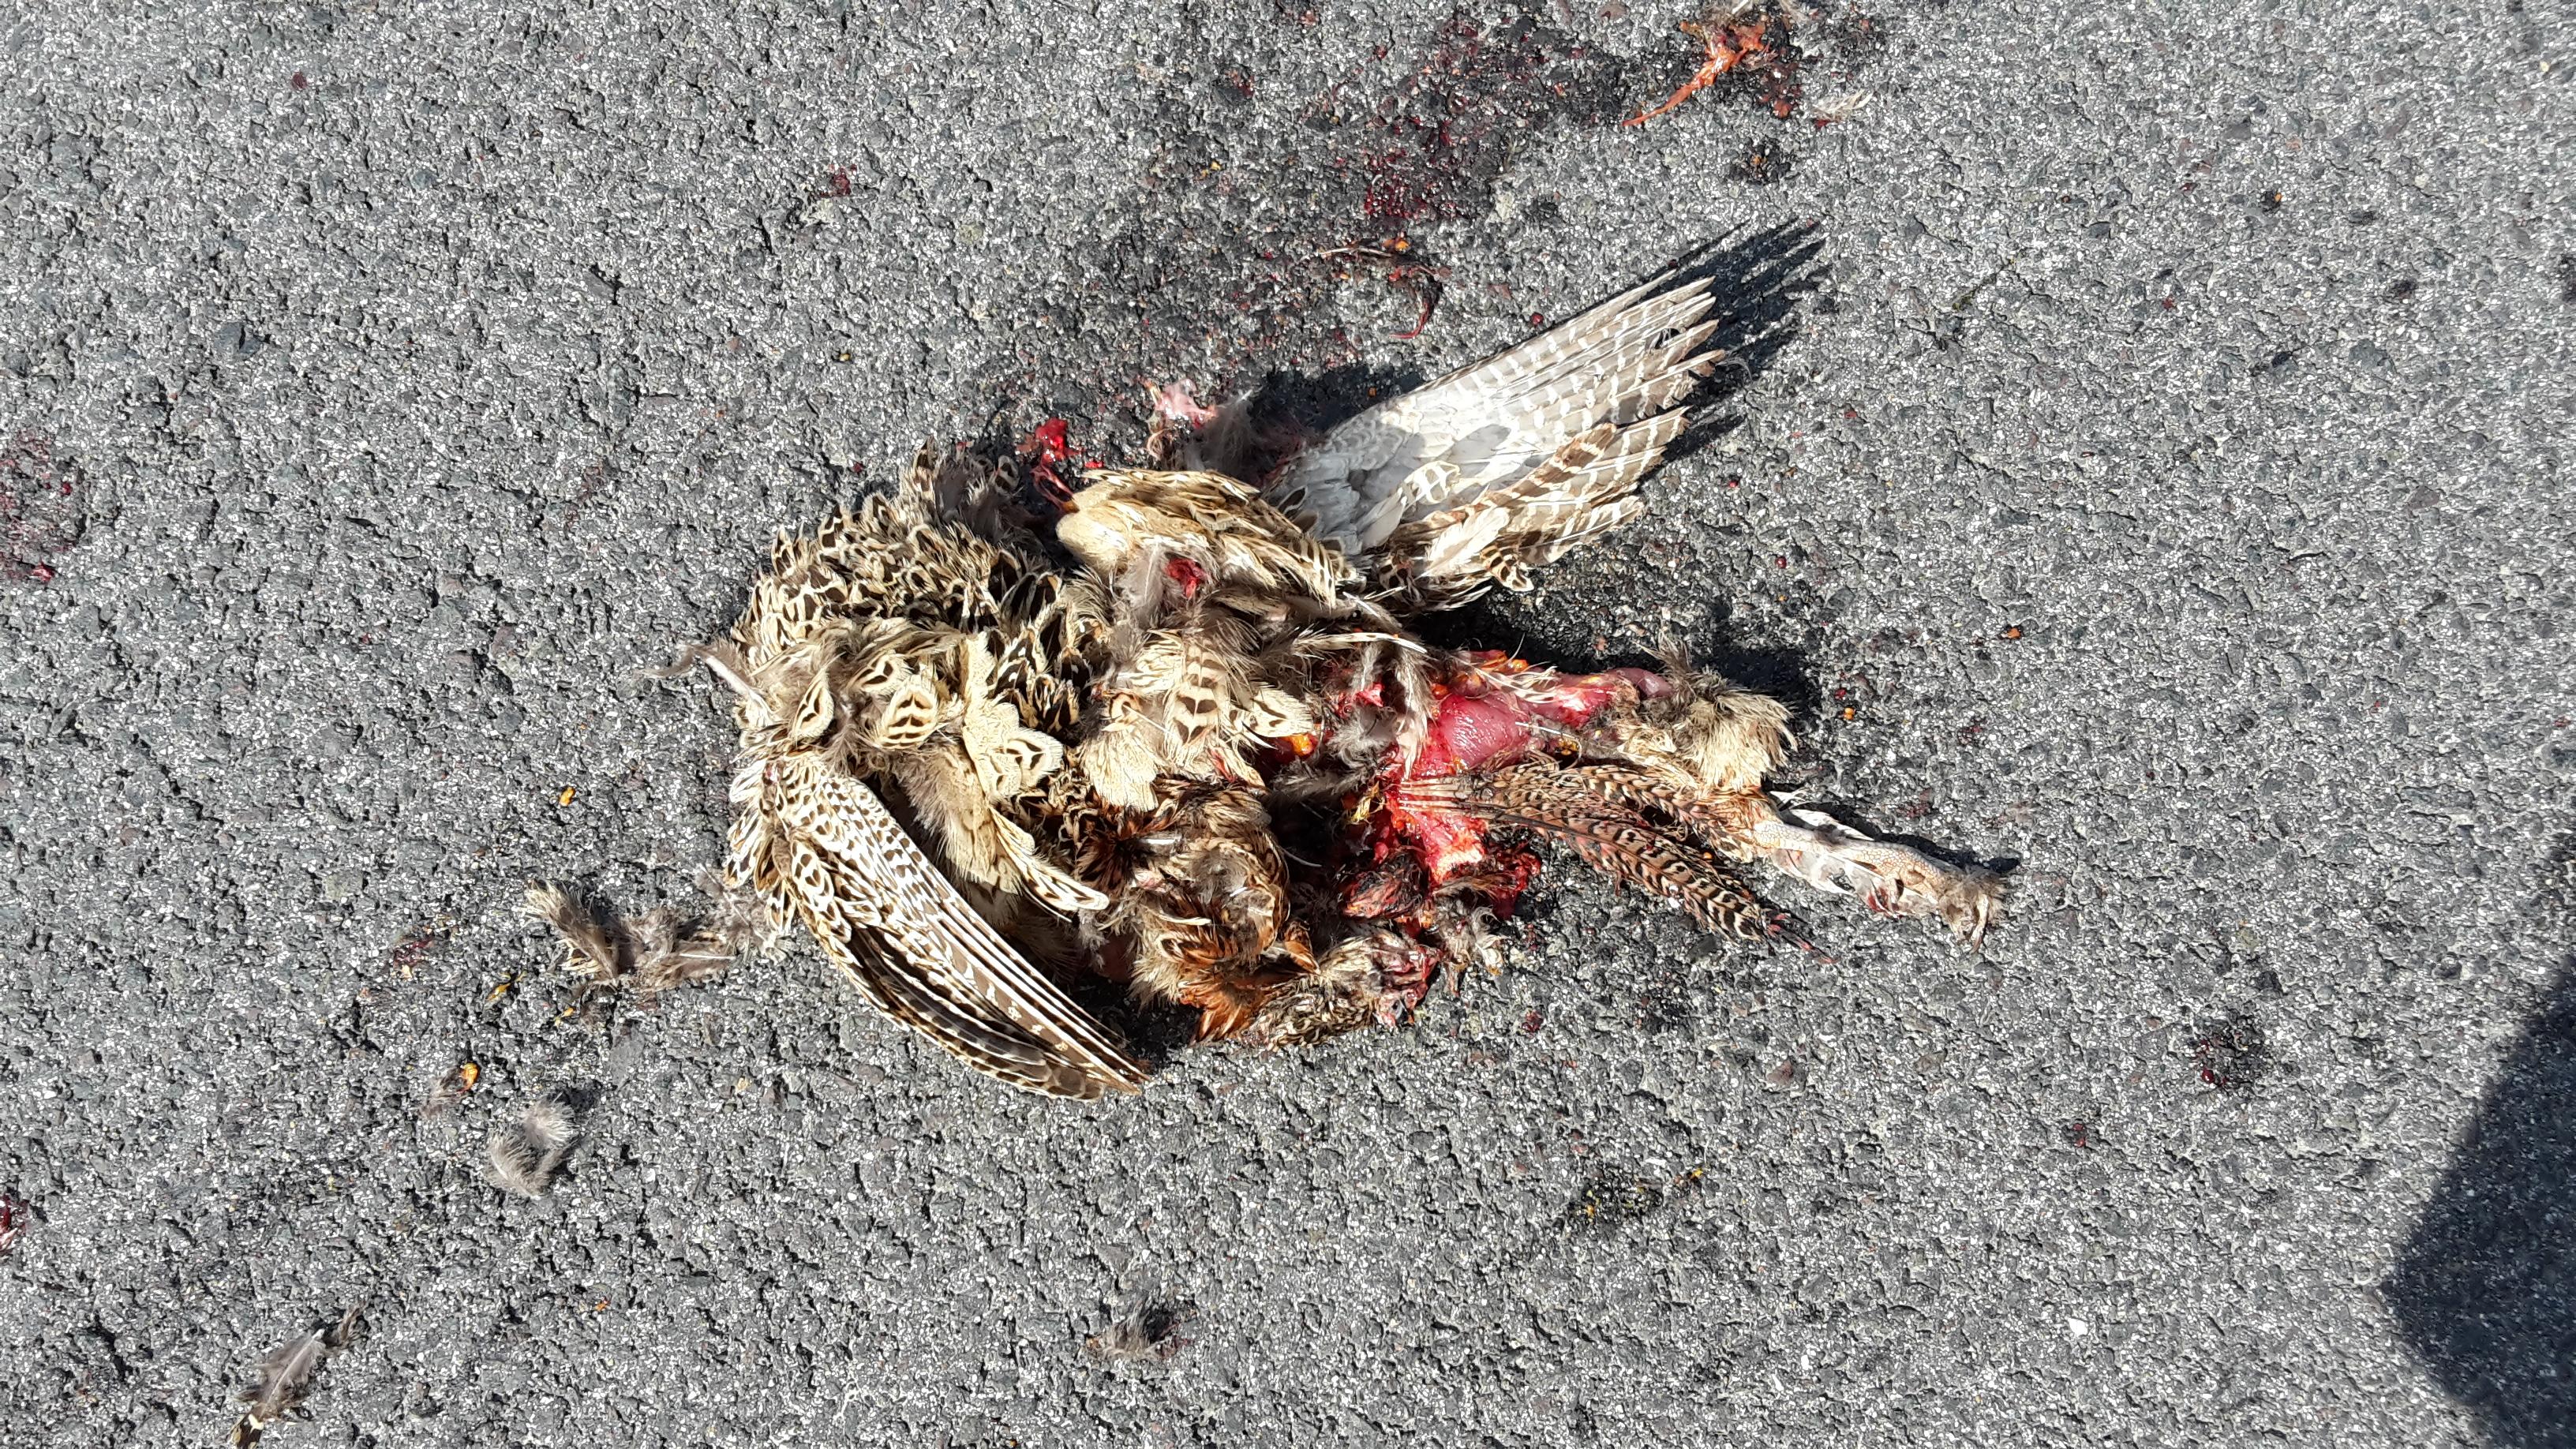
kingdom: Animalia
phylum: Chordata
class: Aves
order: Galliformes
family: Phasianidae
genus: Phasianus
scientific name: Phasianus colchicus
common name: Common pheasant
